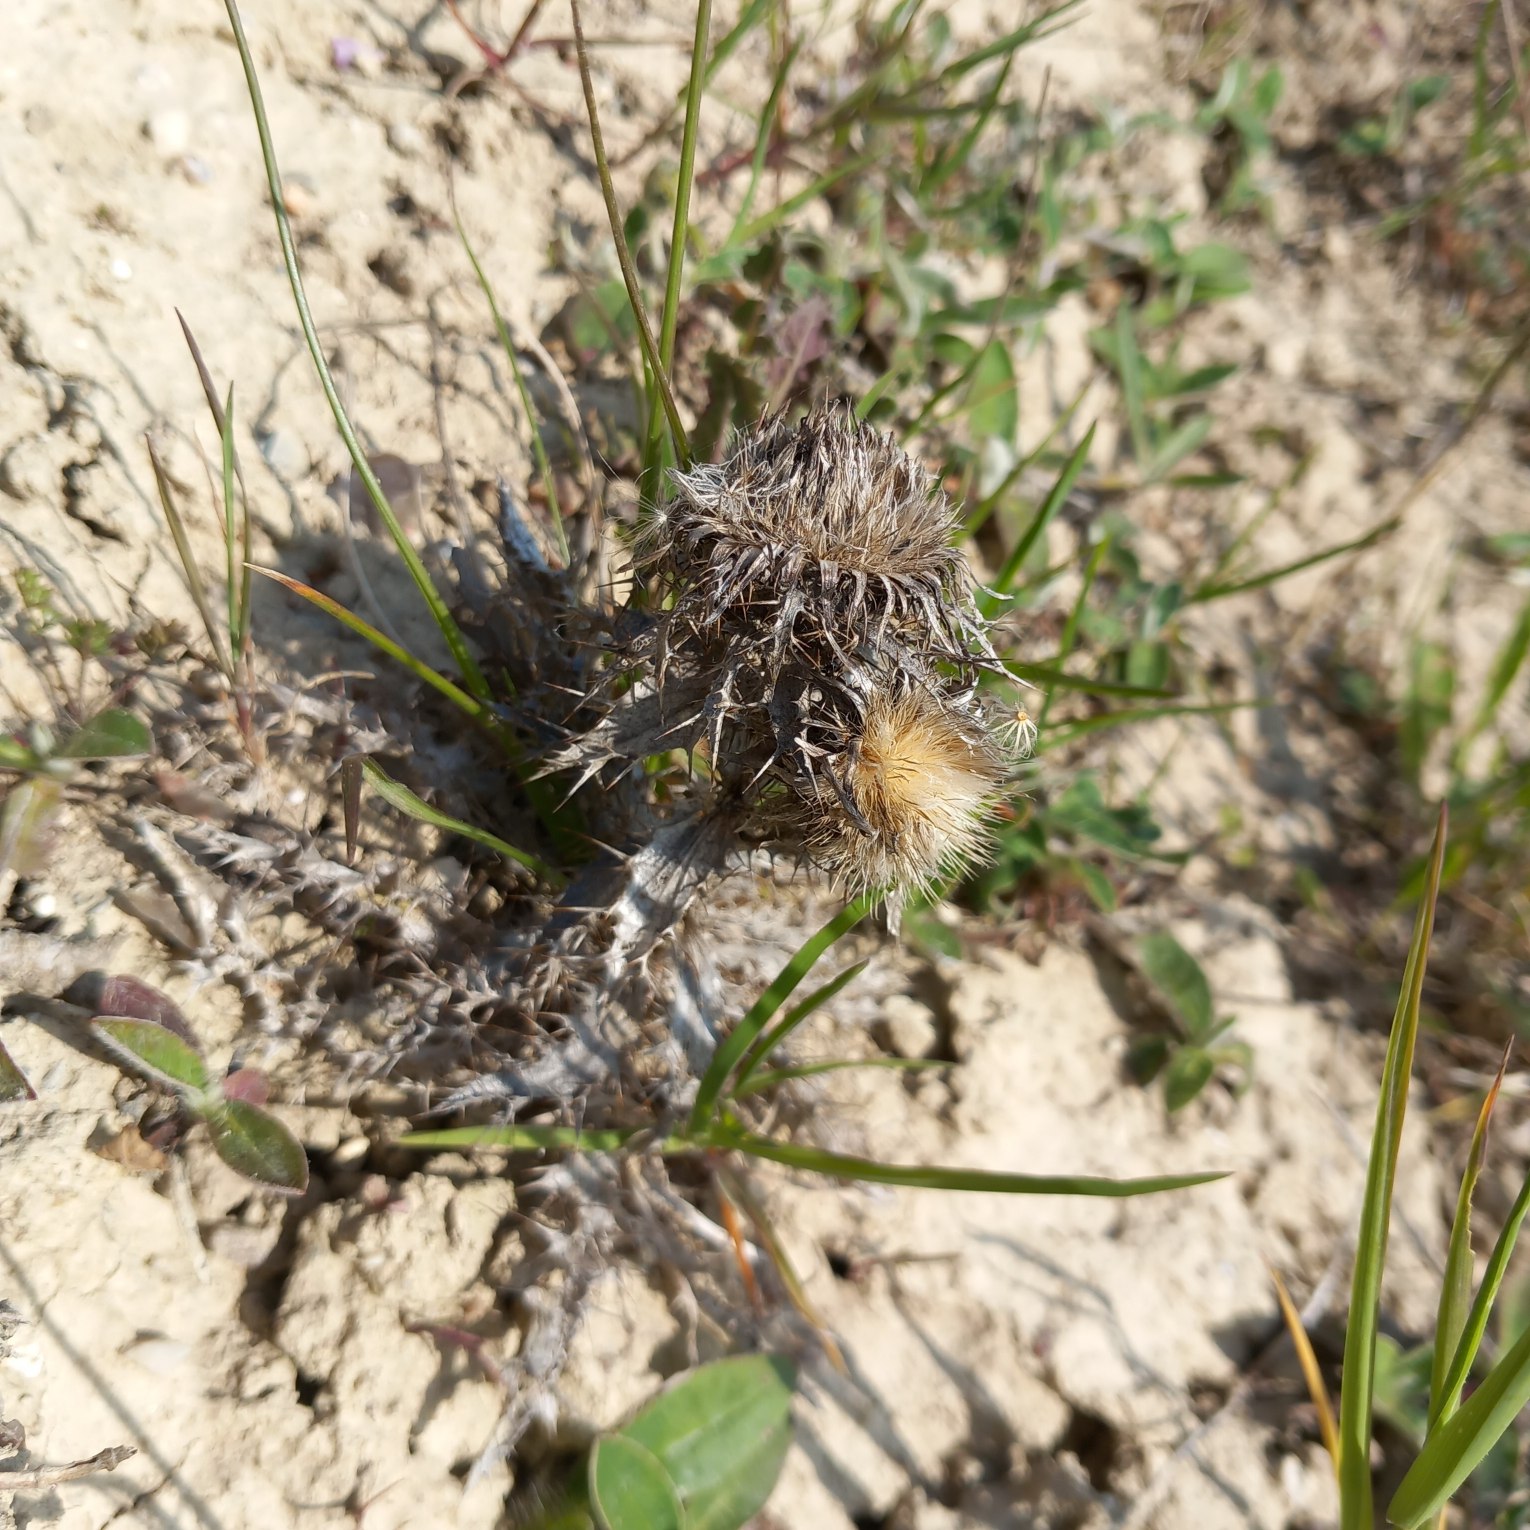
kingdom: Plantae
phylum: Tracheophyta
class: Magnoliopsida
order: Asterales
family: Asteraceae
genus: Carlina
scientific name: Carlina vulgaris
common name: Bakketidsel
